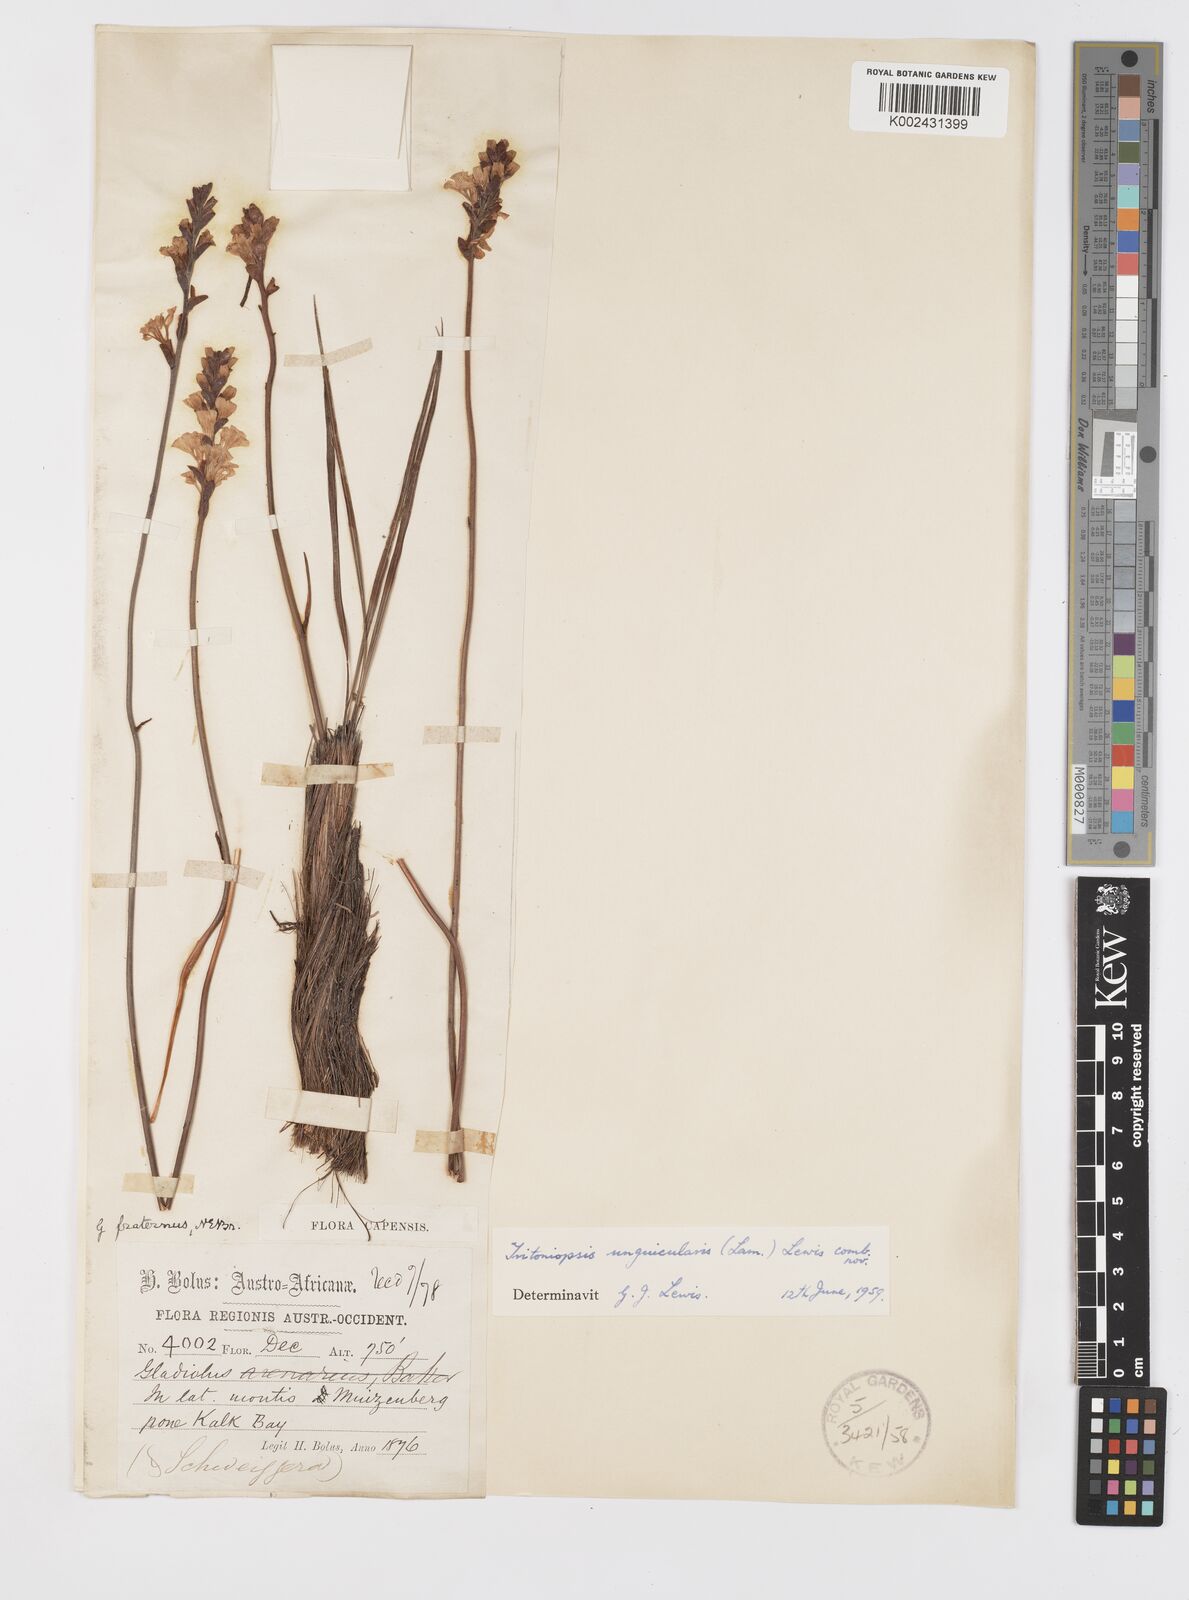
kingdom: Plantae
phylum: Tracheophyta
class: Liliopsida
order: Asparagales
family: Iridaceae
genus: Tritoniopsis
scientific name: Tritoniopsis unguicularis
